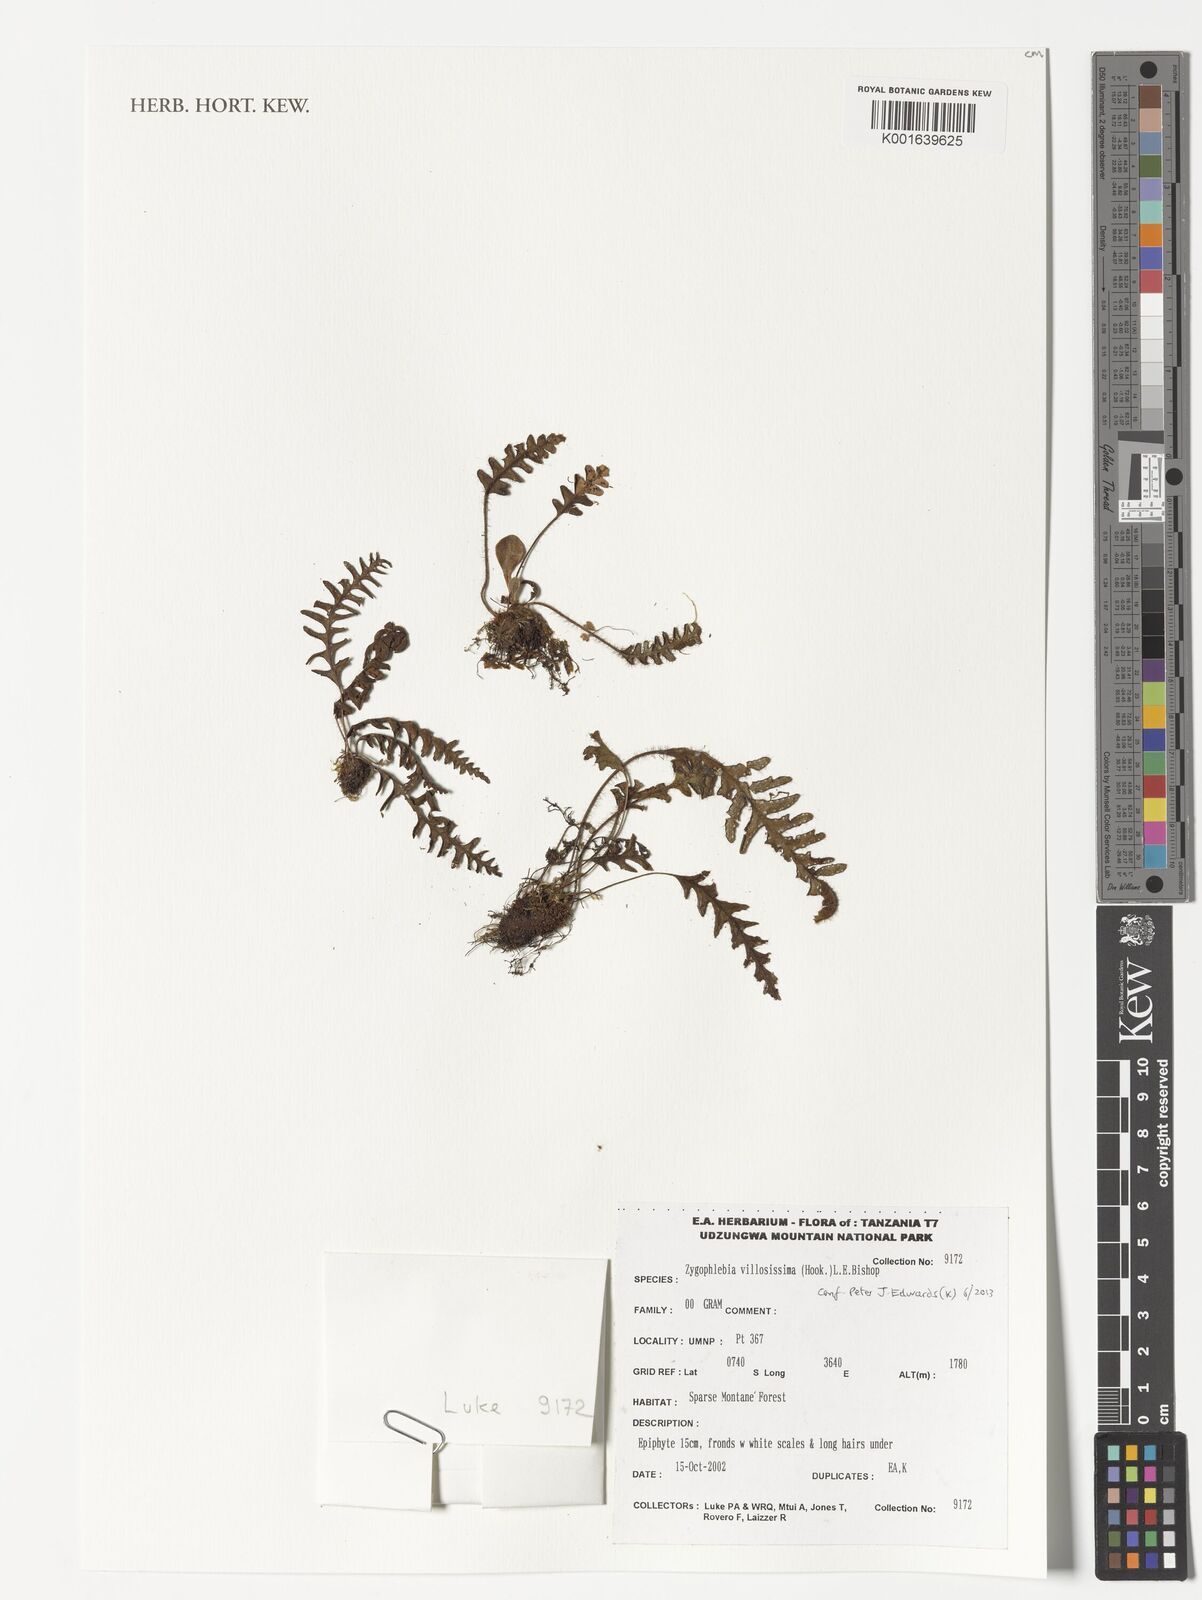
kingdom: Plantae
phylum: Tracheophyta
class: Polypodiopsida
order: Polypodiales
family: Polypodiaceae
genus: Enterosora
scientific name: Enterosora villosissima
